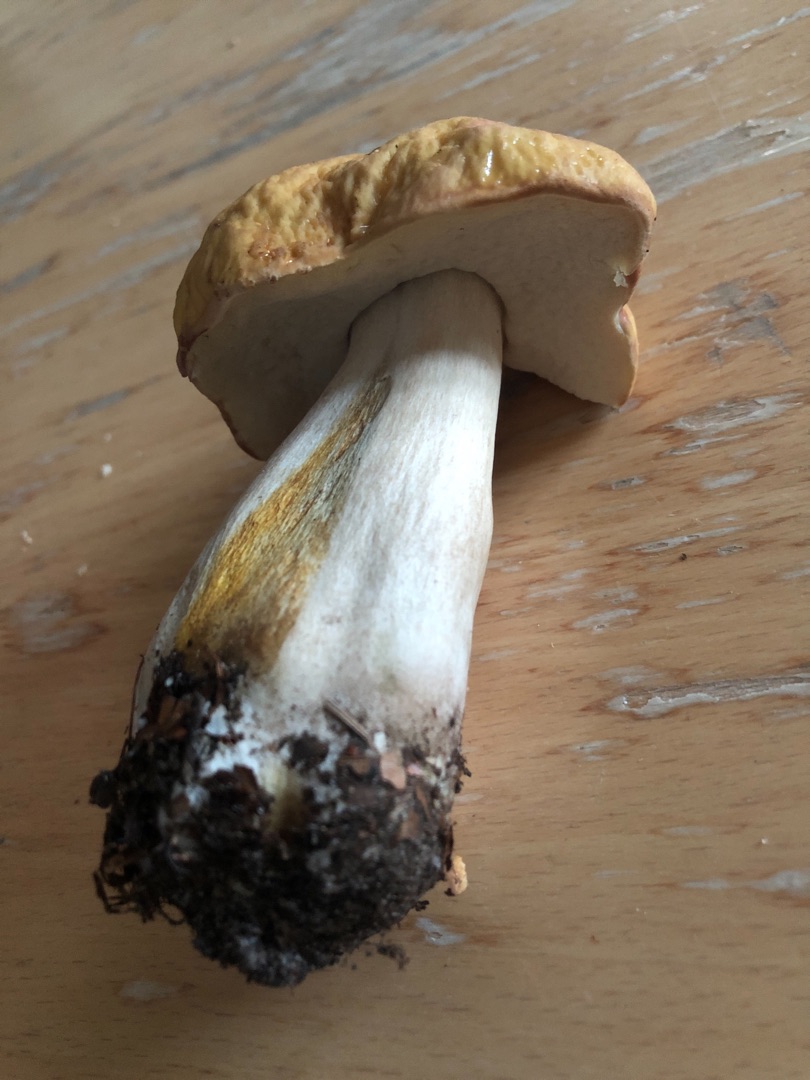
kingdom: Fungi
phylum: Basidiomycota
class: Agaricomycetes
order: Boletales
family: Boletaceae
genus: Boletus
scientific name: Boletus edulis
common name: Spiselig rørhat/karl johan
